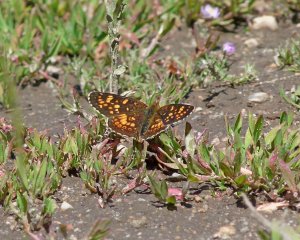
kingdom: Animalia
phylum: Arthropoda
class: Insecta
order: Lepidoptera
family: Nymphalidae
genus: Phyciodes
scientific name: Phyciodes tharos
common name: Field Crescent
